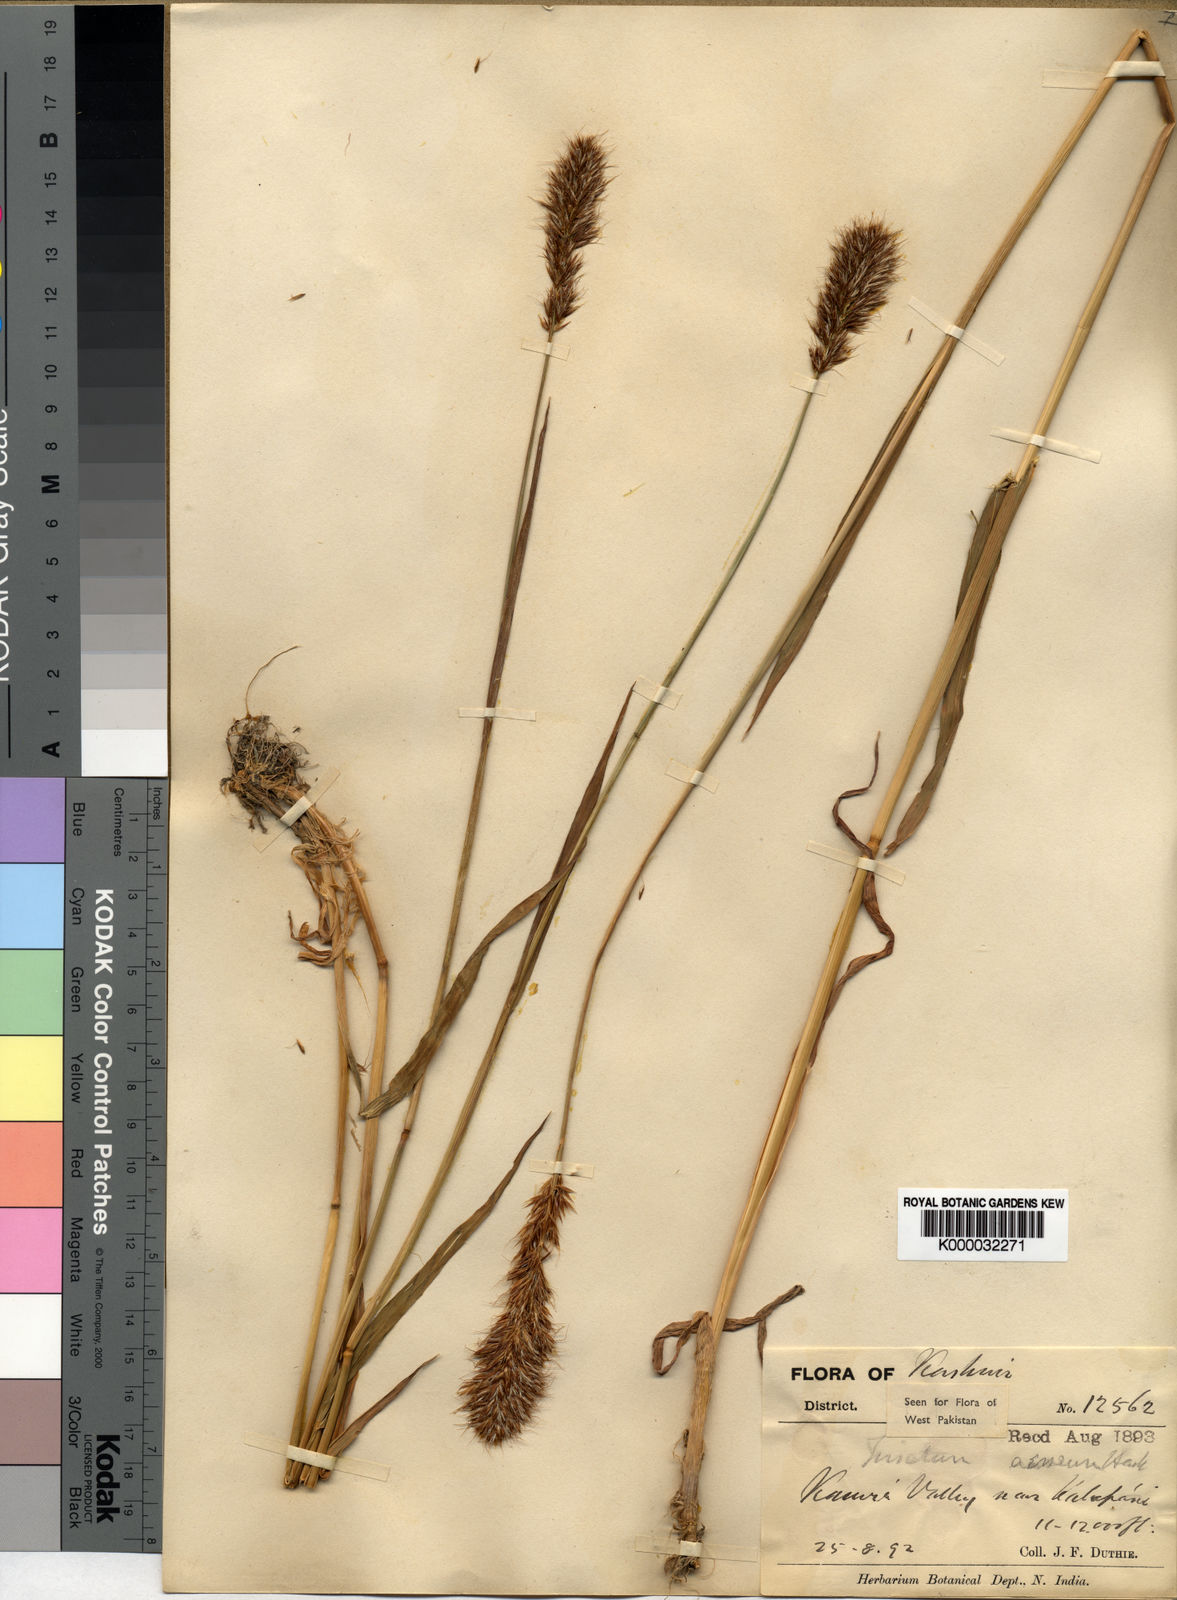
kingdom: Plantae
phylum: Tracheophyta
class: Liliopsida
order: Poales
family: Poaceae
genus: Sibirotrisetum
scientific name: Sibirotrisetum aeneum
